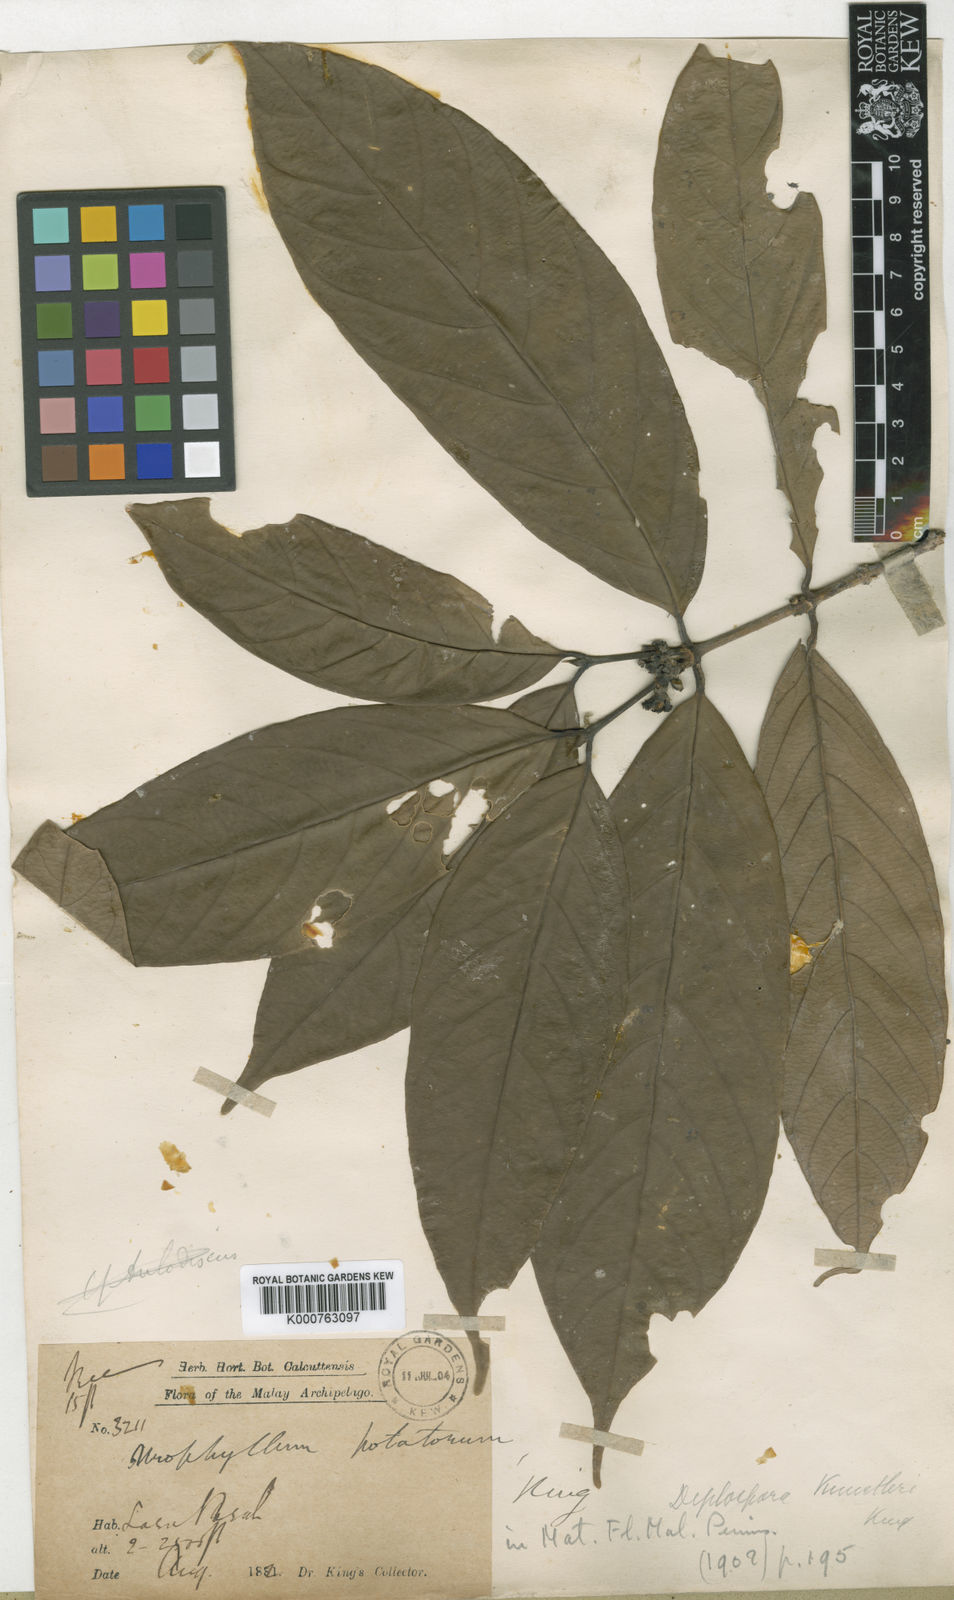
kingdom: Plantae
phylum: Tracheophyta
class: Magnoliopsida
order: Gentianales
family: Rubiaceae
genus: Diplospora
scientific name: Diplospora kunstleri
